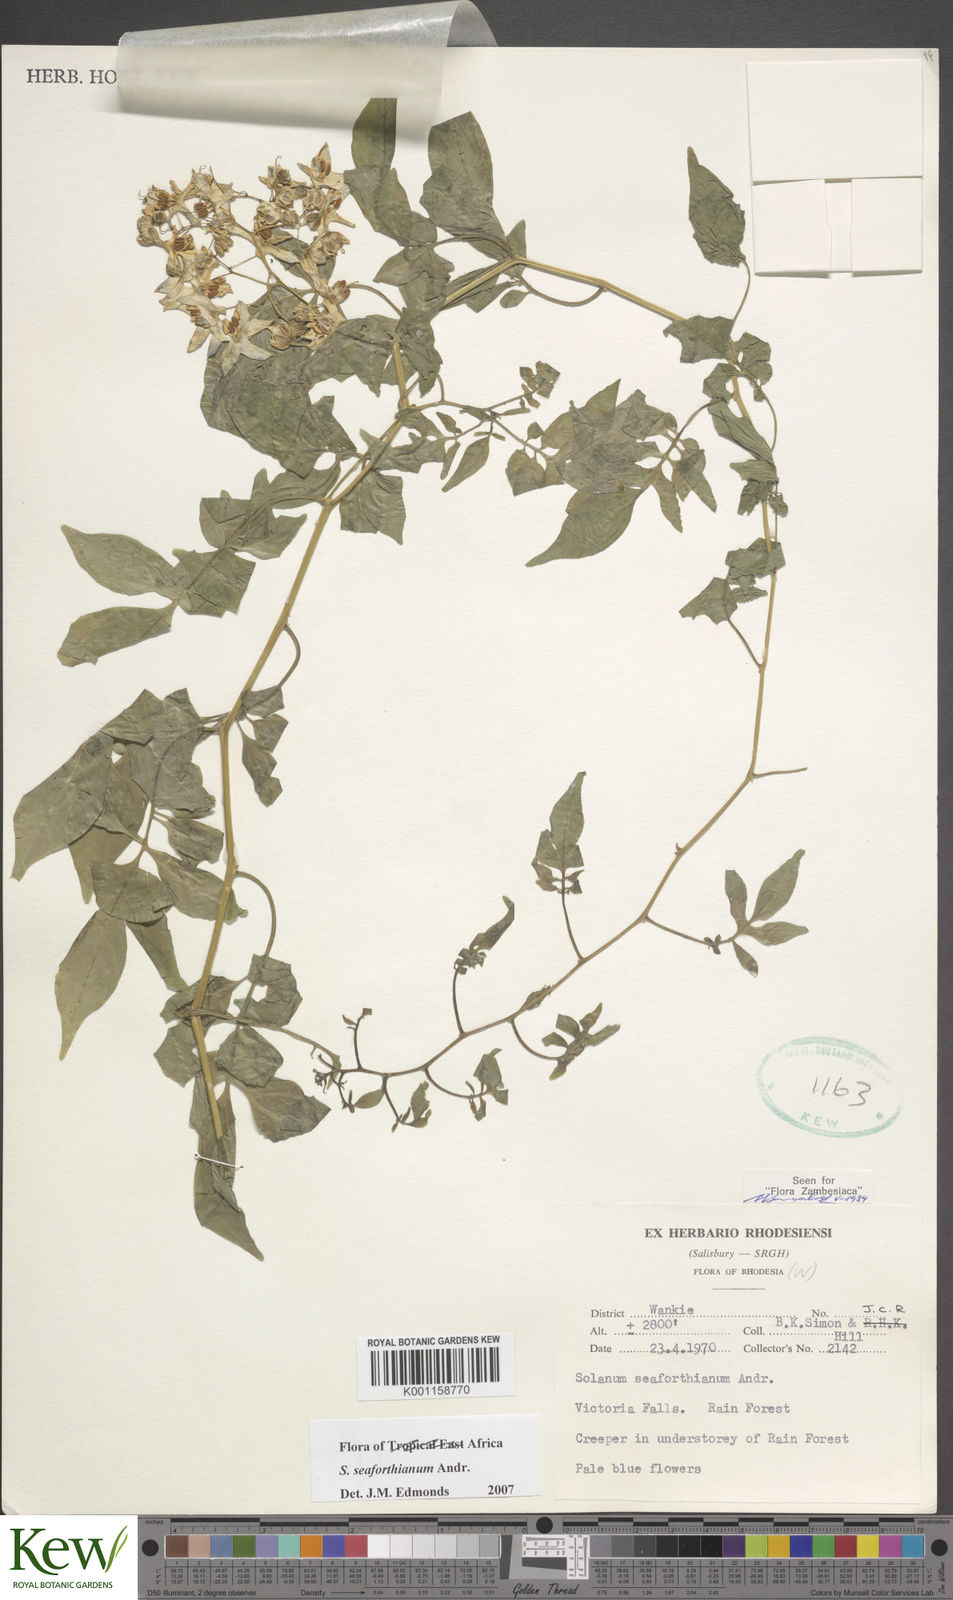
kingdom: Plantae
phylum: Tracheophyta
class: Magnoliopsida
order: Solanales
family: Solanaceae
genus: Solanum
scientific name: Solanum seaforthianum
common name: Brazilian nightshade
